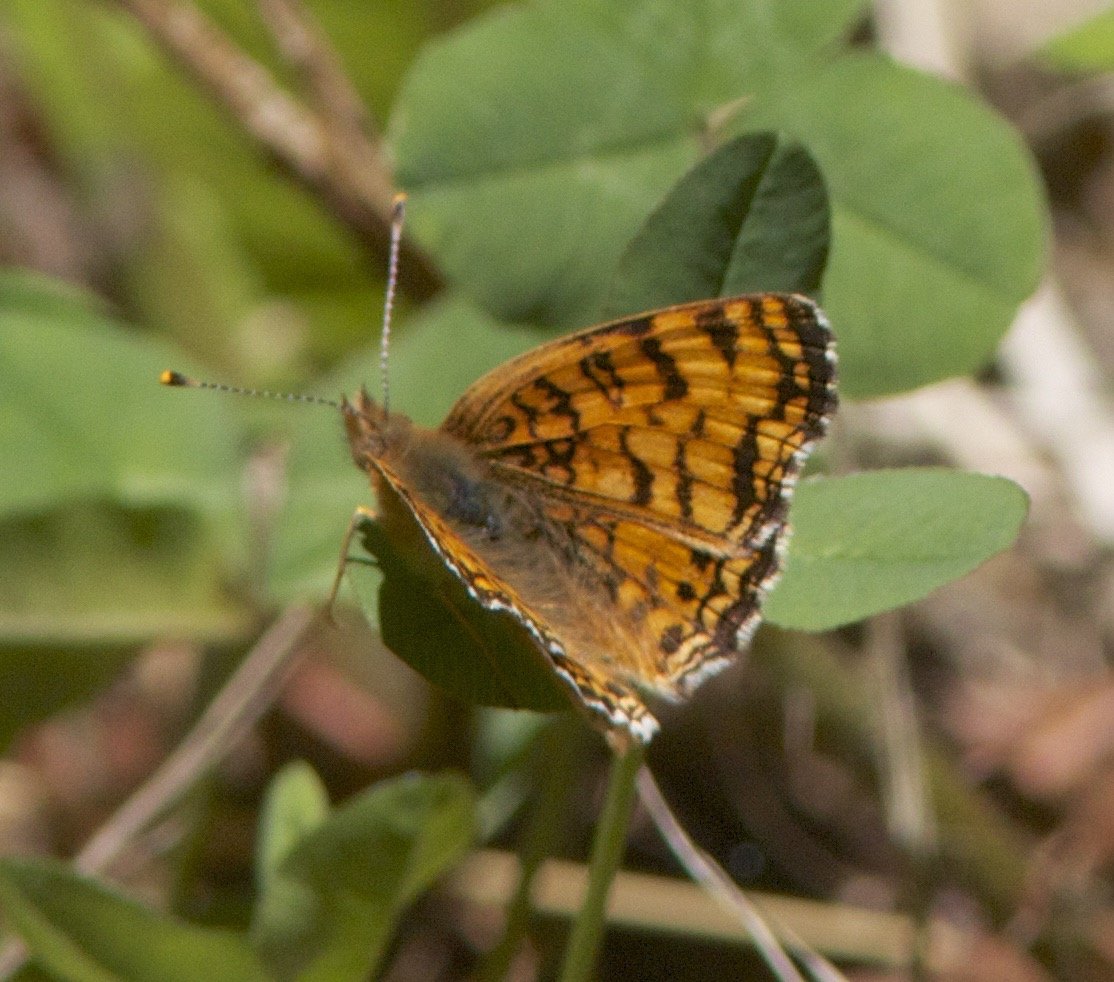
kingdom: Animalia
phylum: Arthropoda
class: Insecta
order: Lepidoptera
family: Nymphalidae
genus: Eresia
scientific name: Eresia aveyrona
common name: Mylitta Crescent
